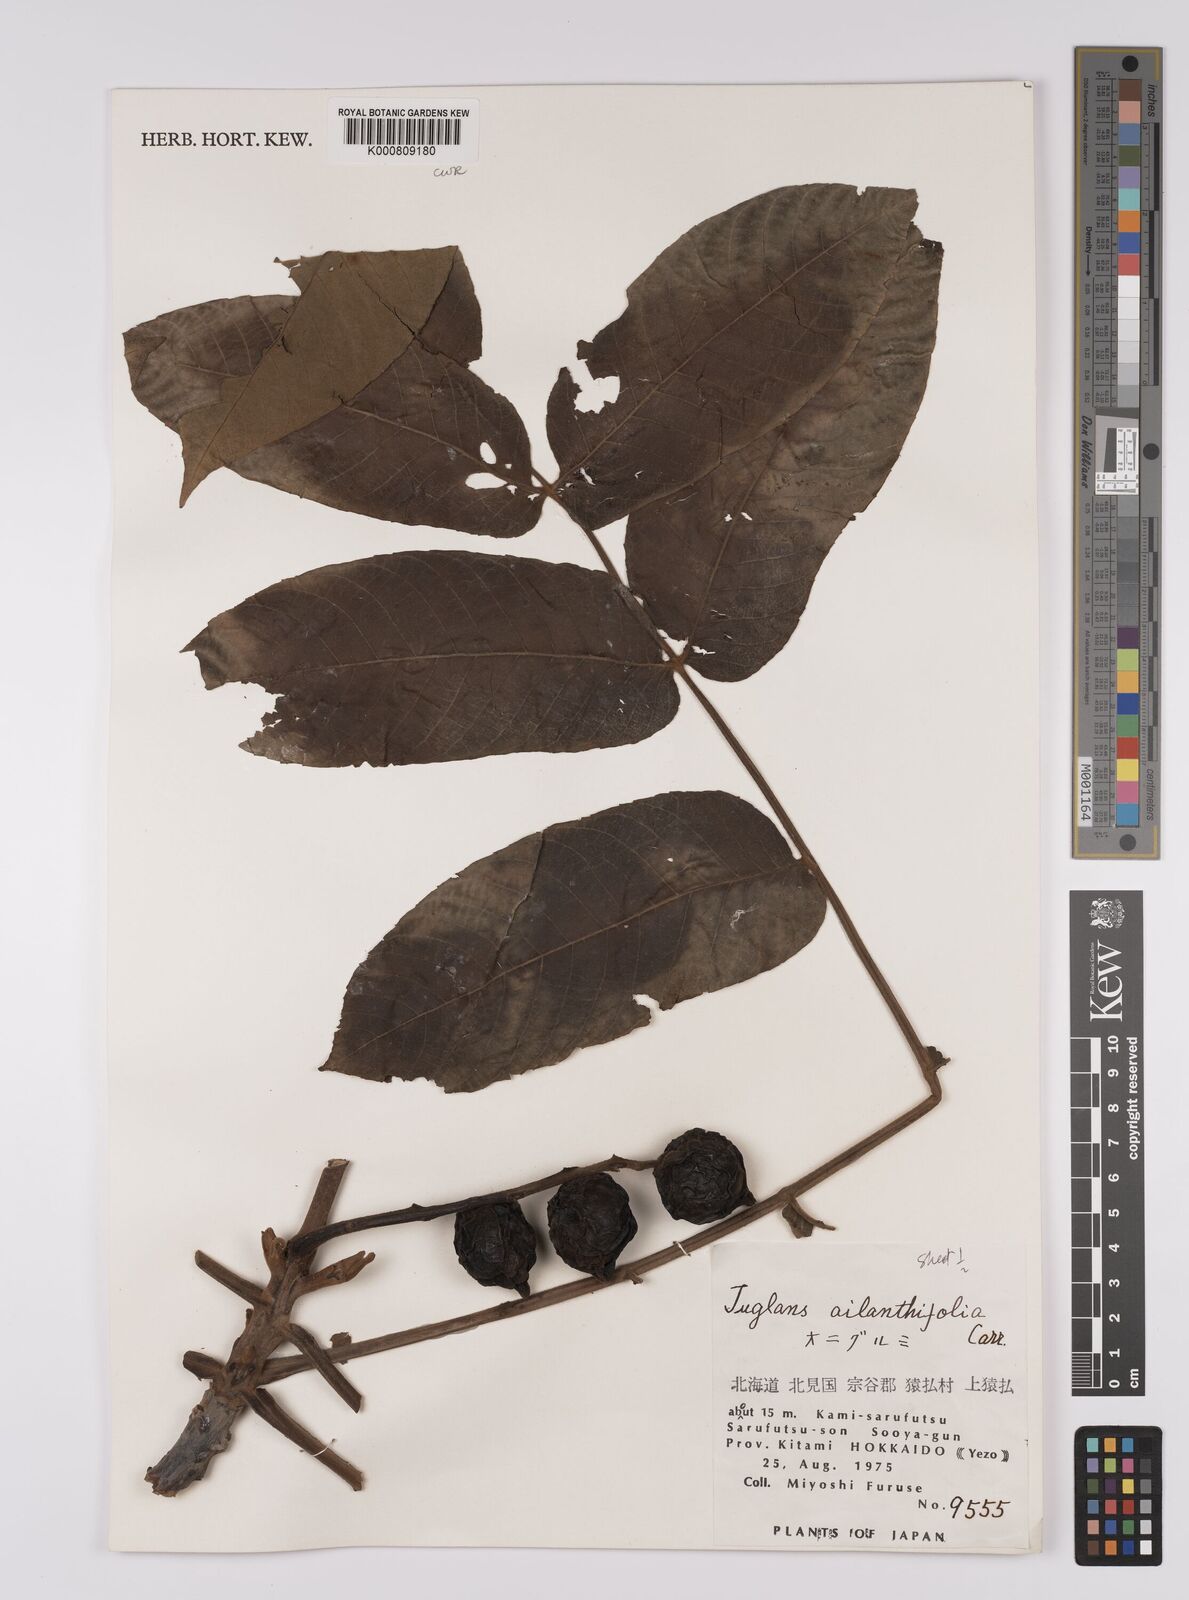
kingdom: Plantae
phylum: Tracheophyta
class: Magnoliopsida
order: Fagales
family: Juglandaceae
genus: Juglans
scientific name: Juglans
